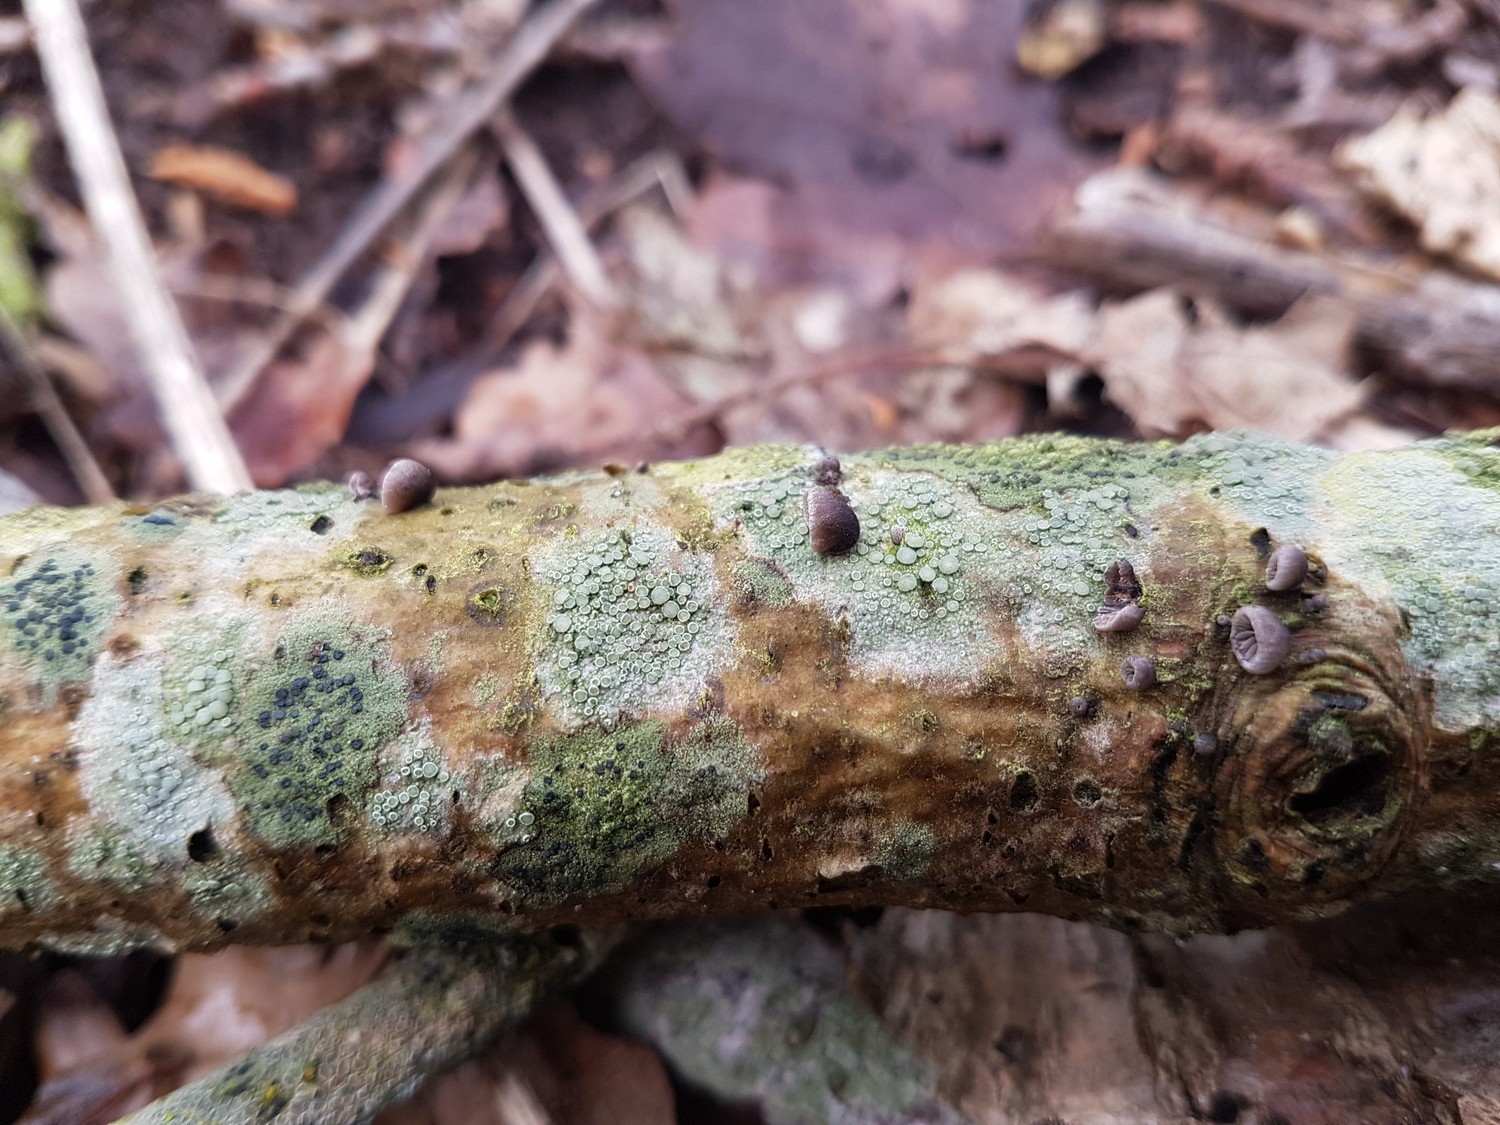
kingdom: Fungi
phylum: Basidiomycota
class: Agaricomycetes
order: Agaricales
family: Pleurotaceae
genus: Resupinatus
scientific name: Resupinatus trichotis
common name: mørkfiltet barkhat
